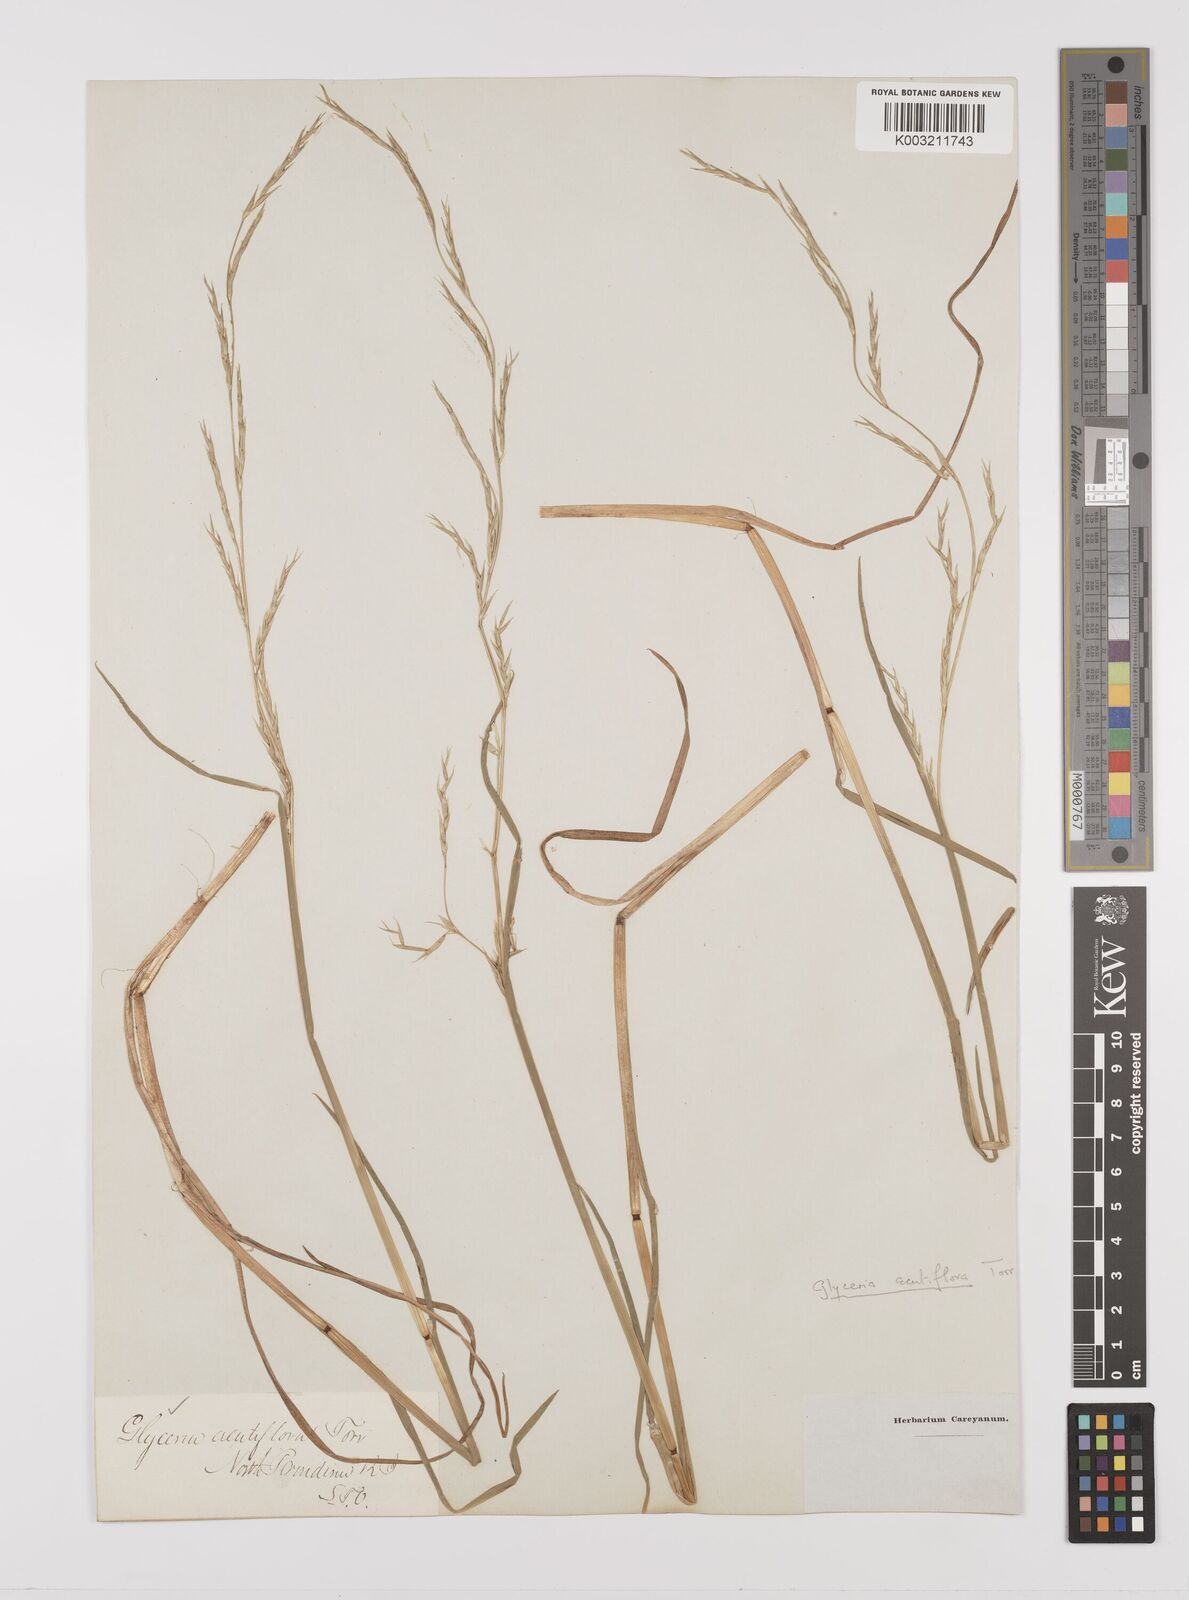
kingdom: Plantae
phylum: Tracheophyta
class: Liliopsida
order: Poales
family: Poaceae
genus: Glyceria
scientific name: Glyceria acutiflora
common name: Sharp-glumed manna-grass
